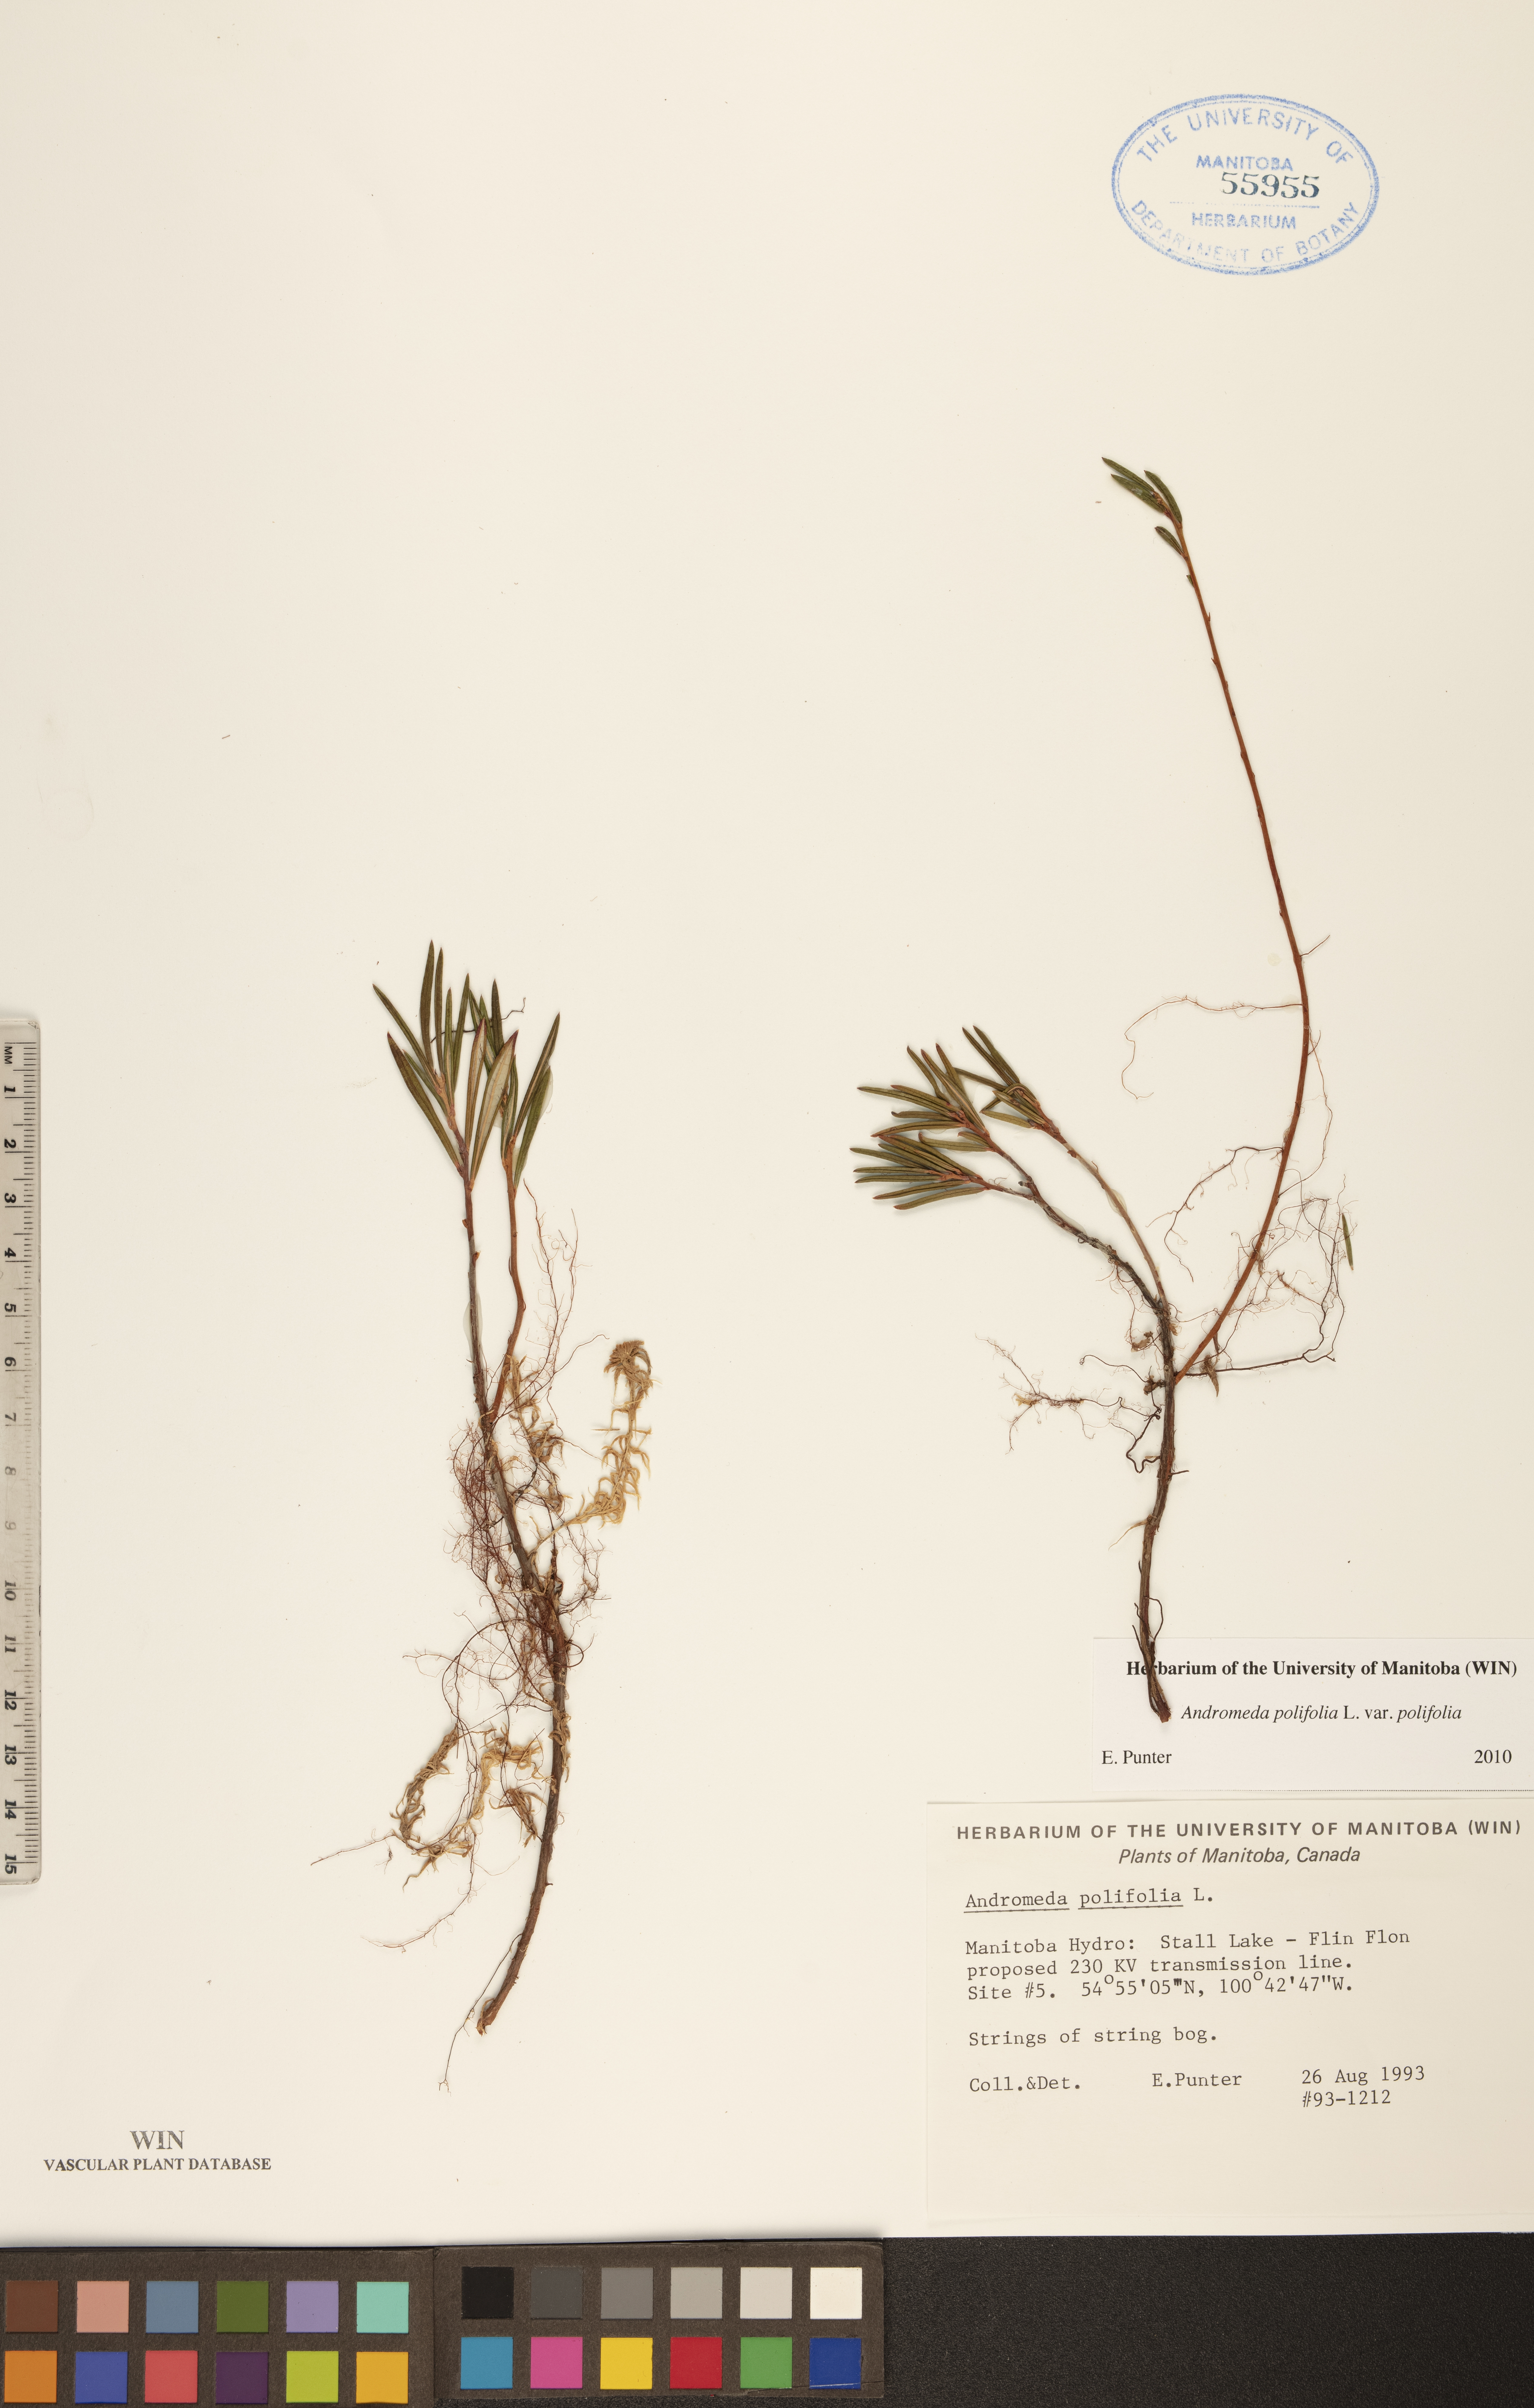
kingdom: Plantae
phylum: Tracheophyta
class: Magnoliopsida
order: Ericales
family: Ericaceae
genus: Andromeda
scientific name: Andromeda polifolia
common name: Bog-rosemary
